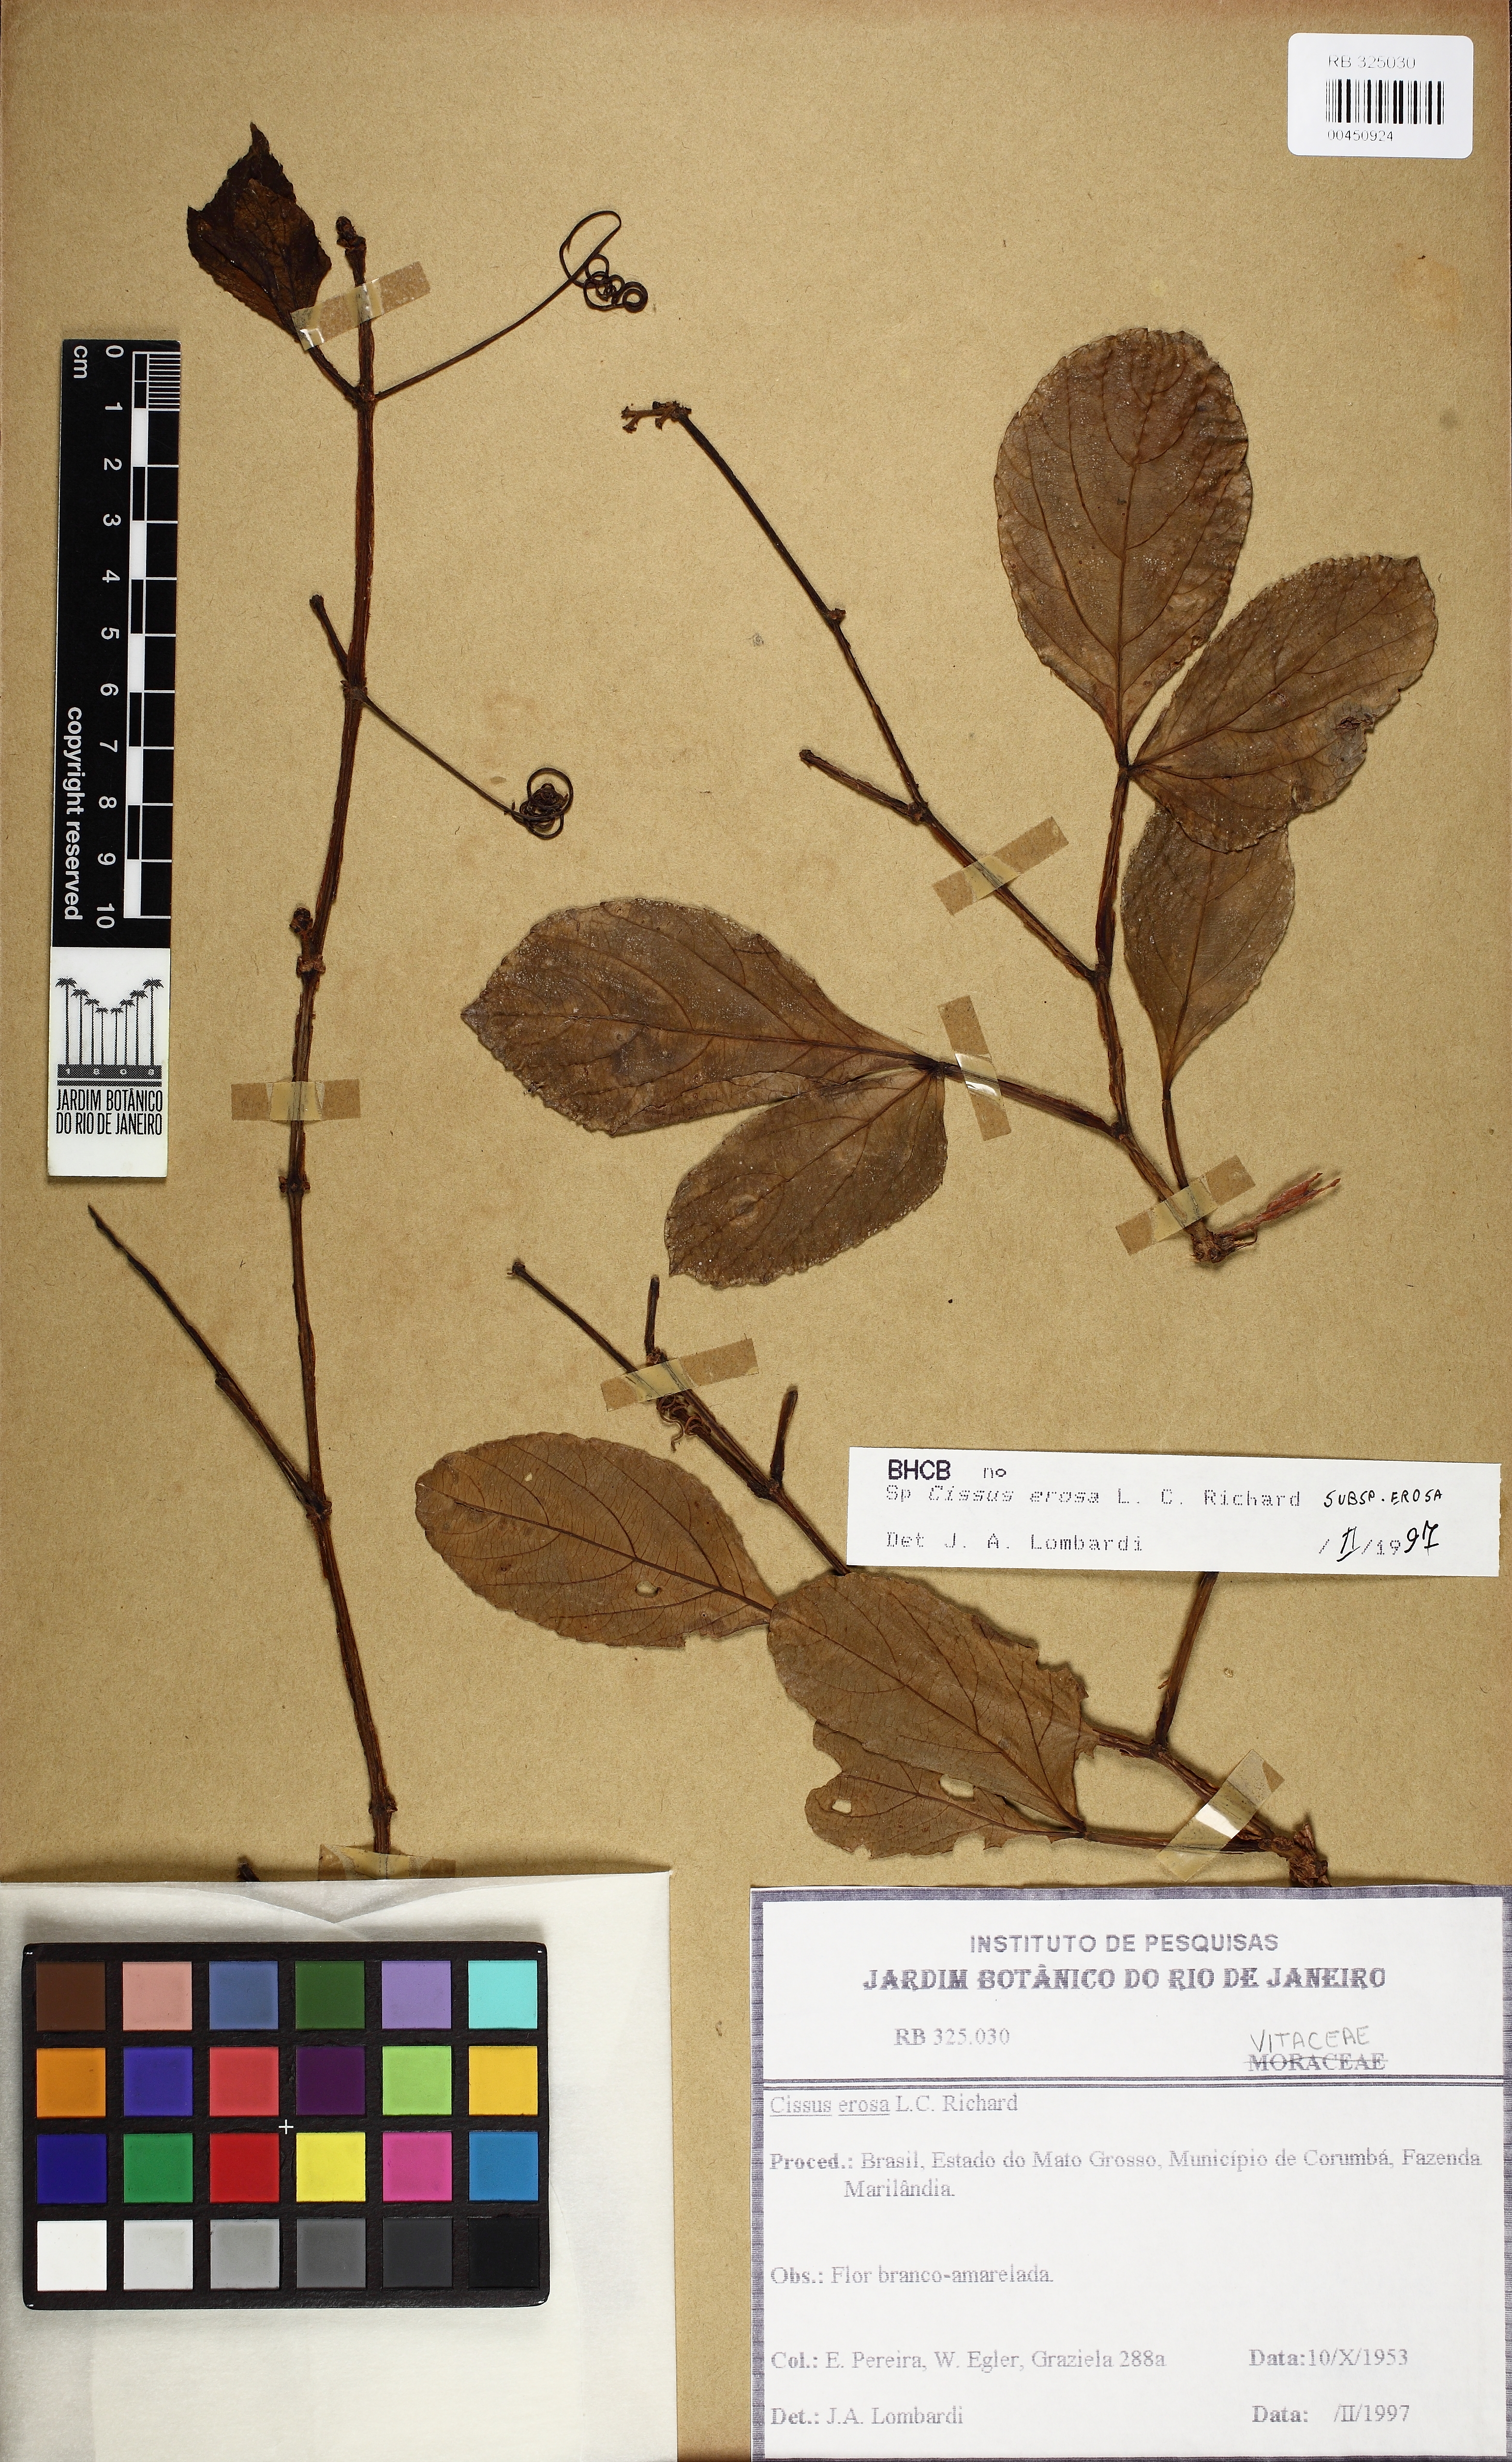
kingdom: Plantae
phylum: Tracheophyta
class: Magnoliopsida
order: Vitales
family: Vitaceae
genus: Cissus
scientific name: Cissus erosa
